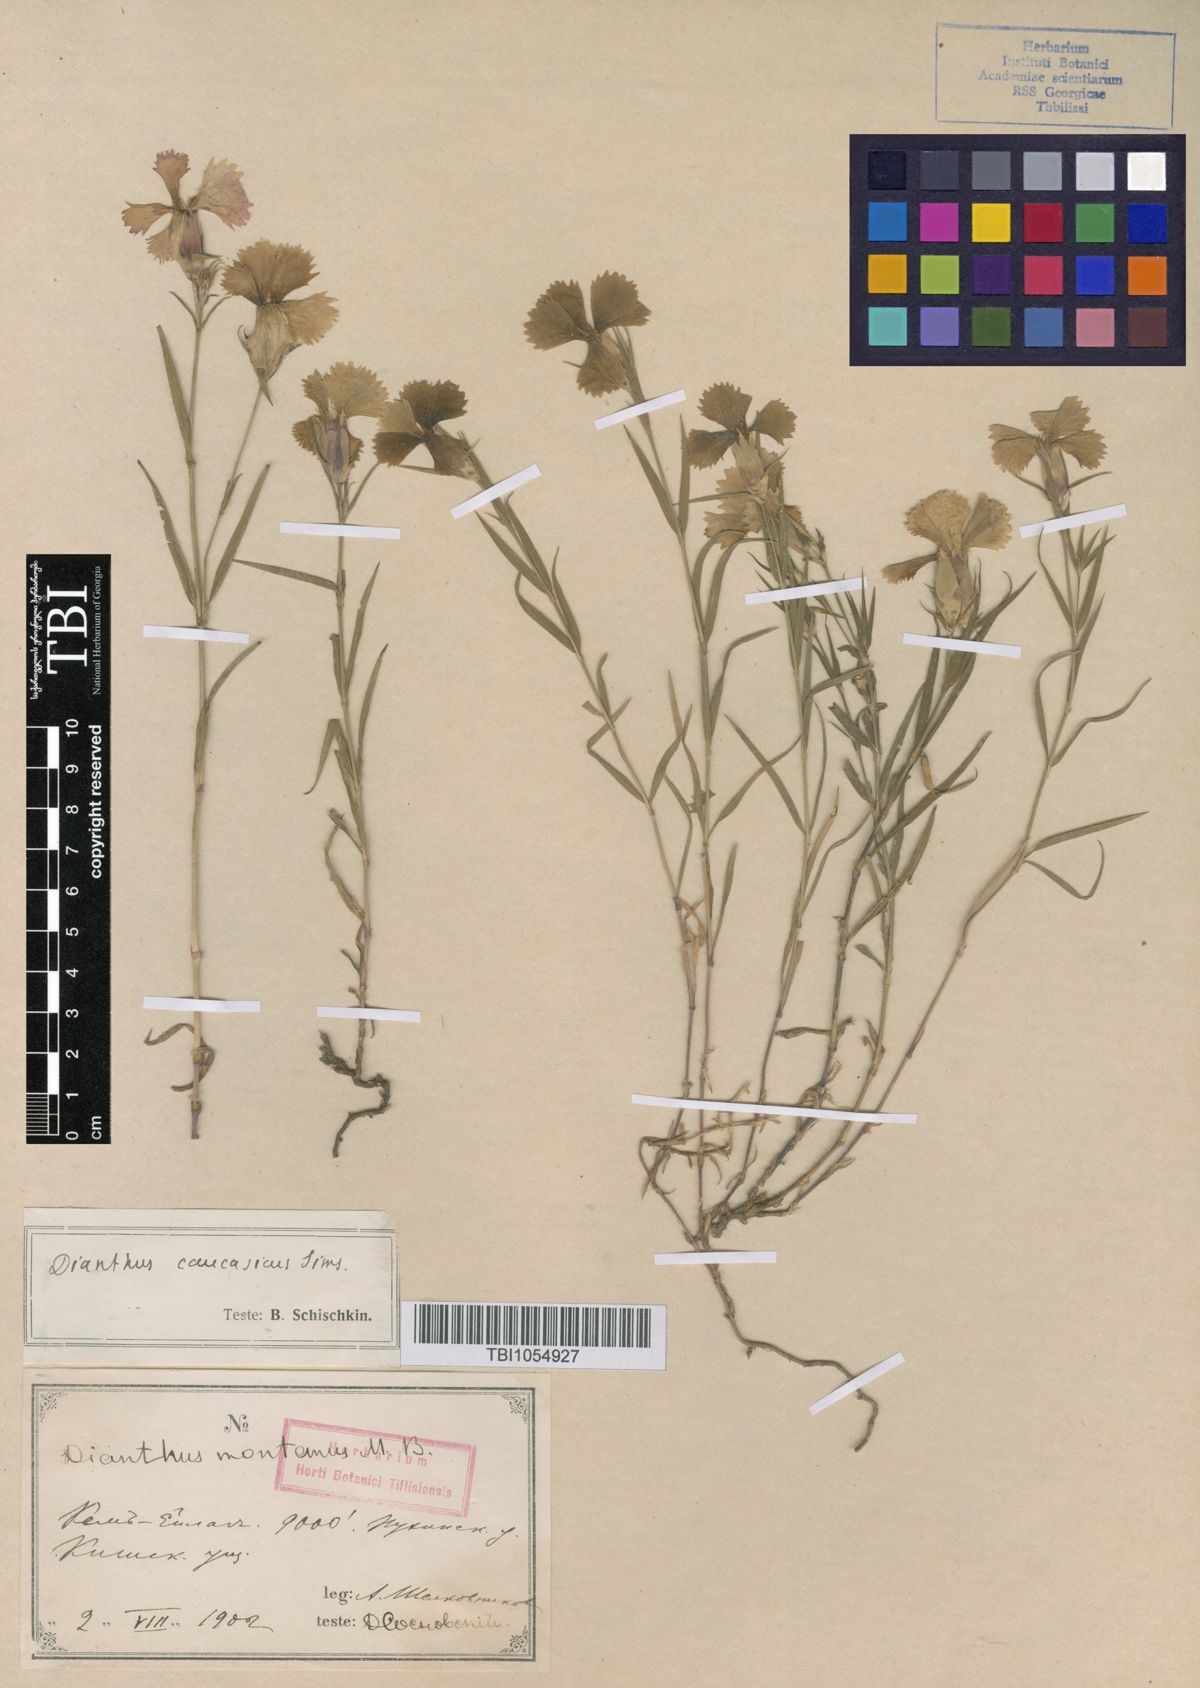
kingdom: Plantae
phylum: Tracheophyta
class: Magnoliopsida
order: Caryophyllales
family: Caryophyllaceae
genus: Dianthus
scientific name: Dianthus caucaseus
